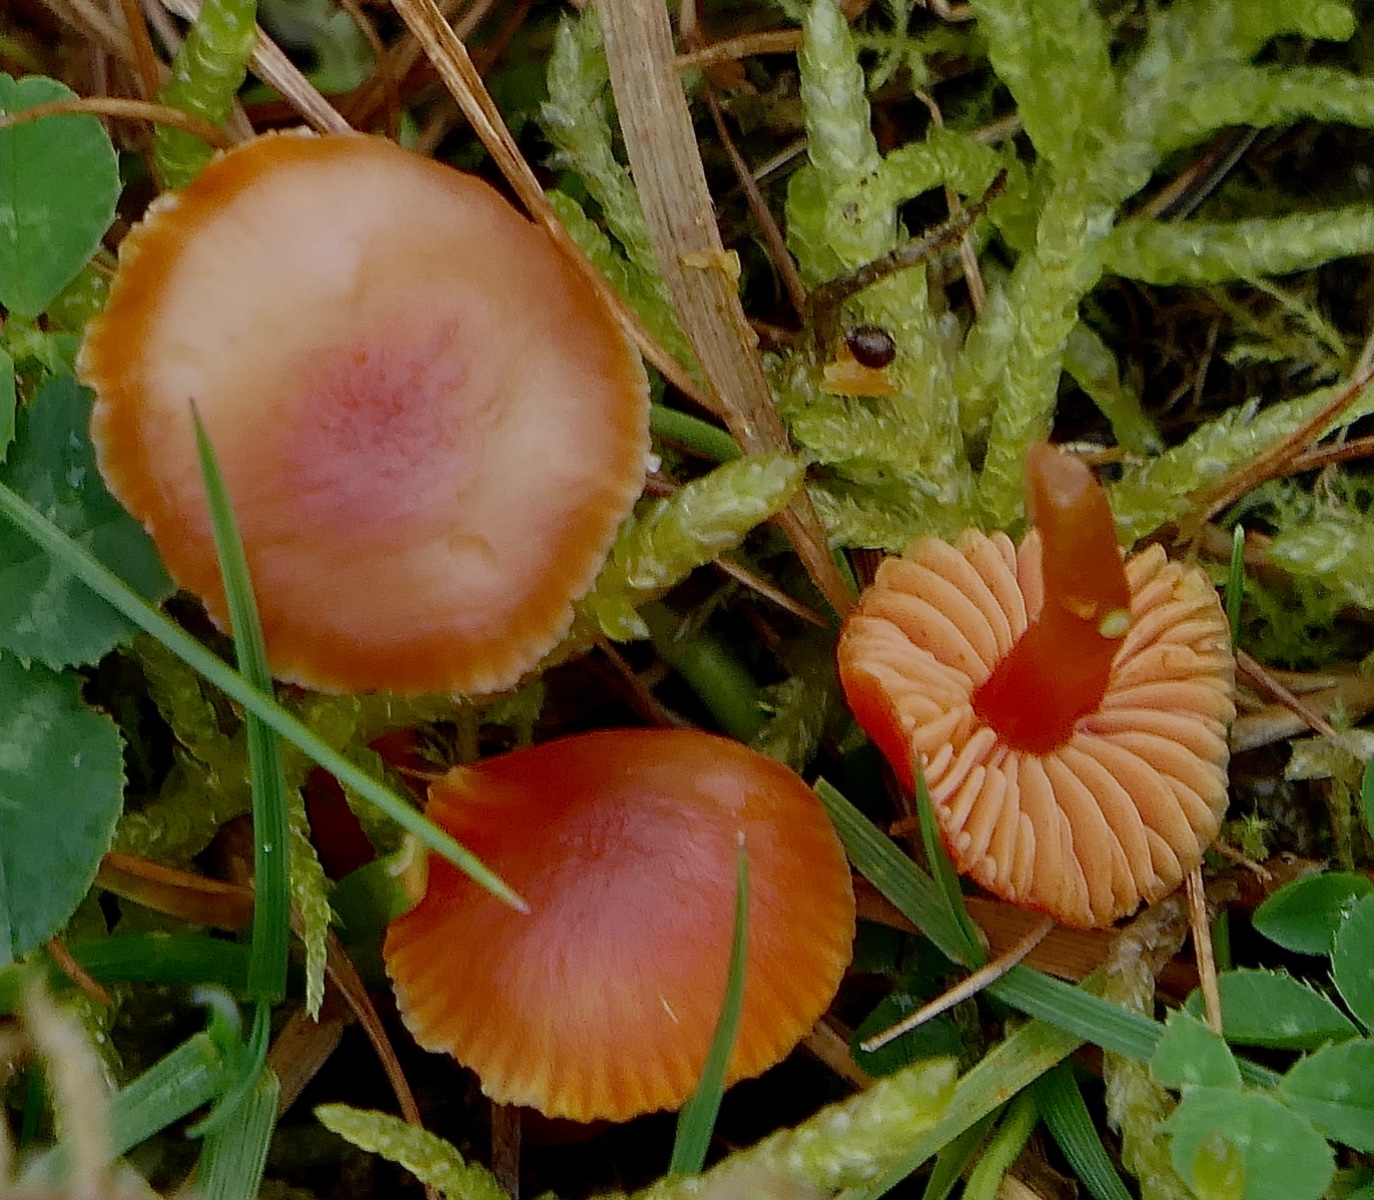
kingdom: Fungi
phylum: Basidiomycota
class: Agaricomycetes
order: Agaricales
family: Hygrophoraceae
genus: Hygrocybe
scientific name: Hygrocybe phaeococcinea
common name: sortdugget vokshat
